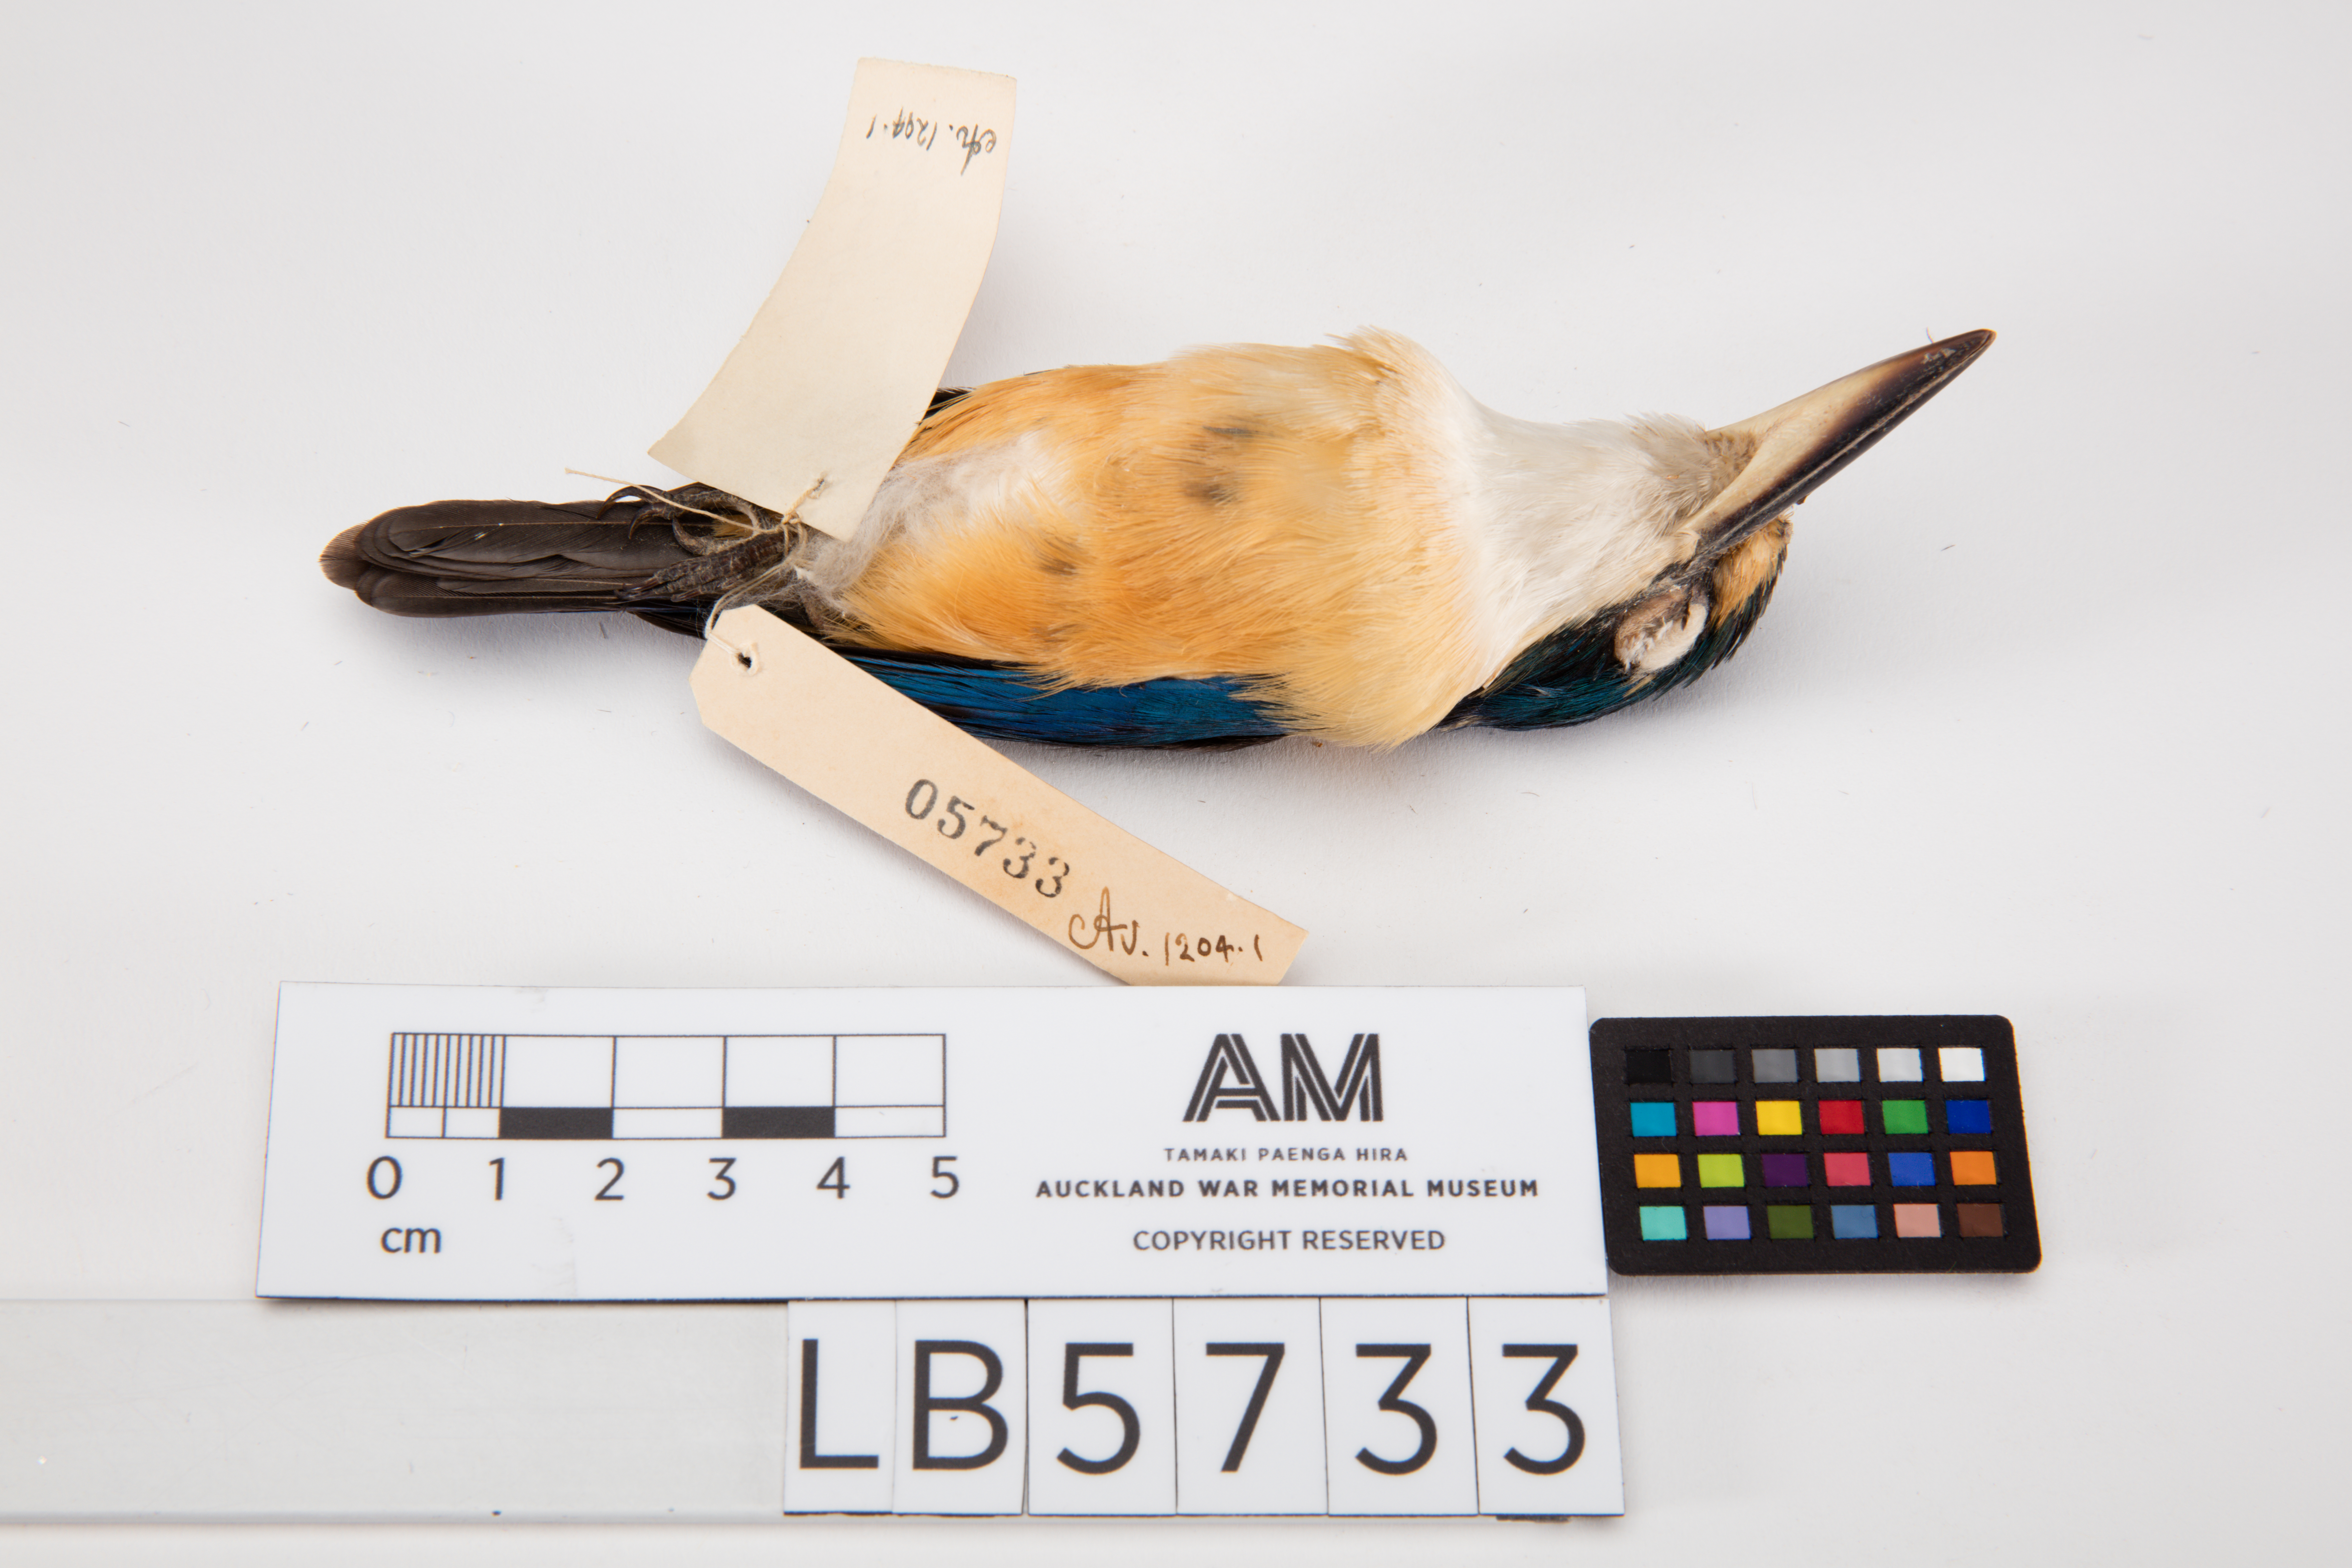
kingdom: Animalia
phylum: Chordata
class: Aves
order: Coraciiformes
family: Alcedinidae
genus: Todiramphus
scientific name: Todiramphus recurvirostris
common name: Flat-billed kingfisher
